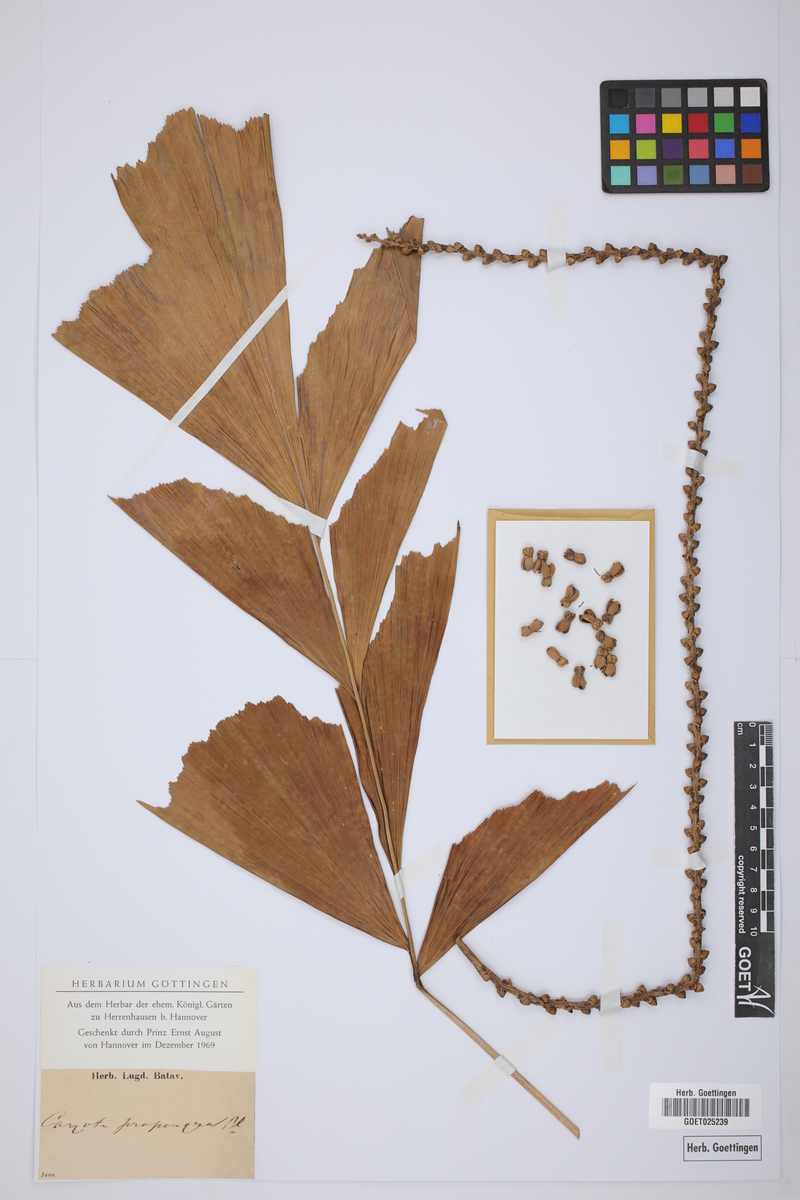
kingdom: Plantae
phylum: Tracheophyta
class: Liliopsida
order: Arecales
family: Arecaceae
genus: Caryota
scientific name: Caryota mitis
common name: Burmese fishtail palm
